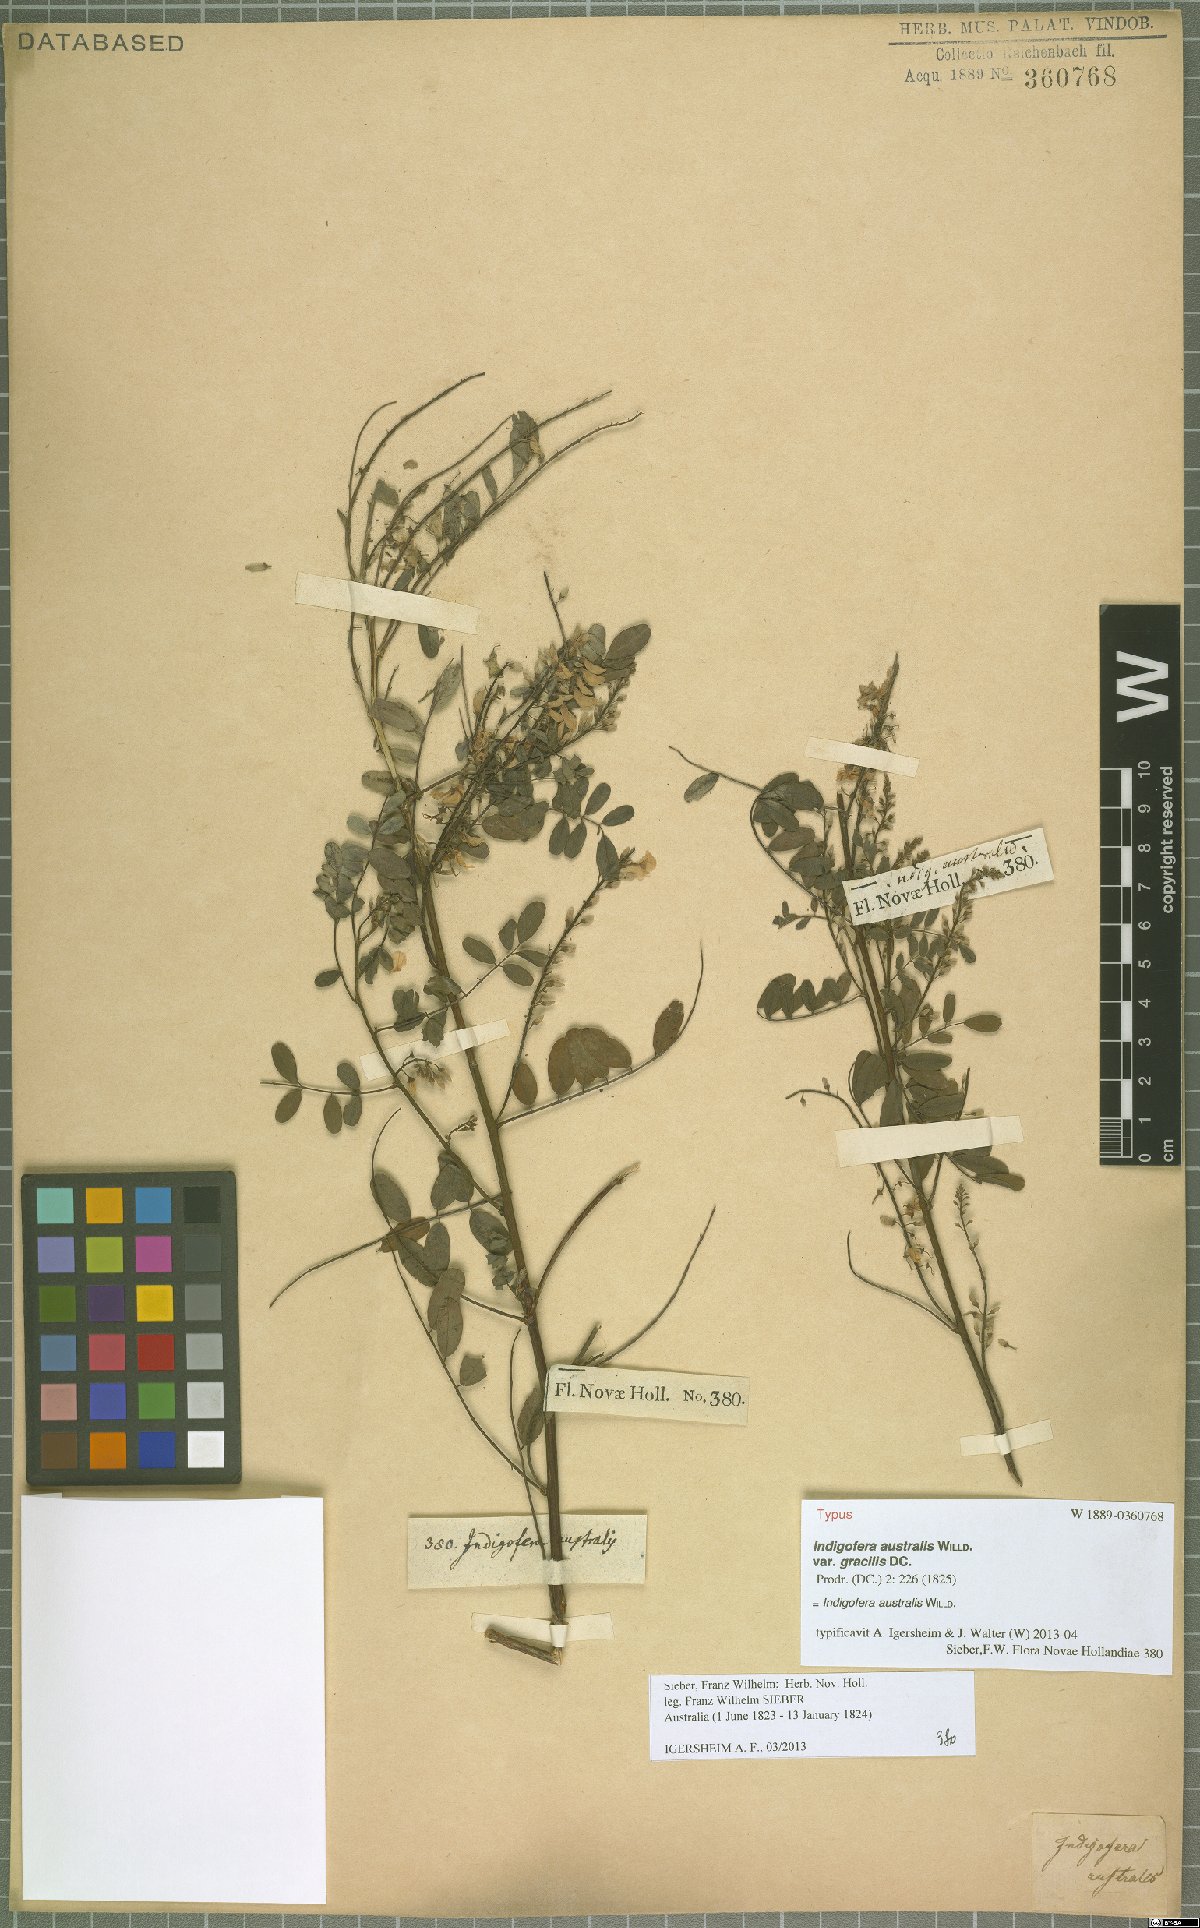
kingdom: Plantae
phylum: Tracheophyta
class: Magnoliopsida
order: Fabales
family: Fabaceae
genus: Indigofera
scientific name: Indigofera australis
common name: Australian indigo
